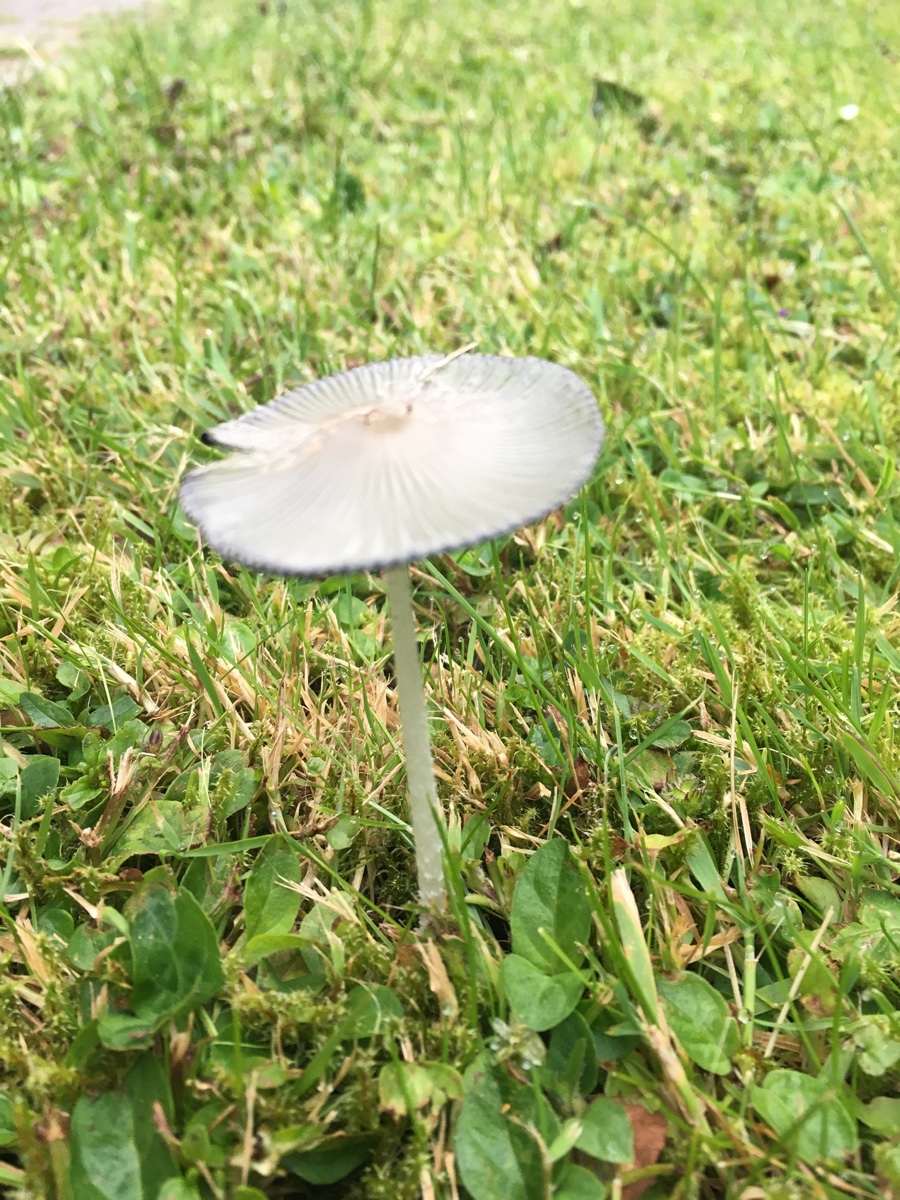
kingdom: Fungi
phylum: Basidiomycota
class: Agaricomycetes
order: Agaricales
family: Psathyrellaceae
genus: Coprinopsis
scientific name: Coprinopsis
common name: blækhat
